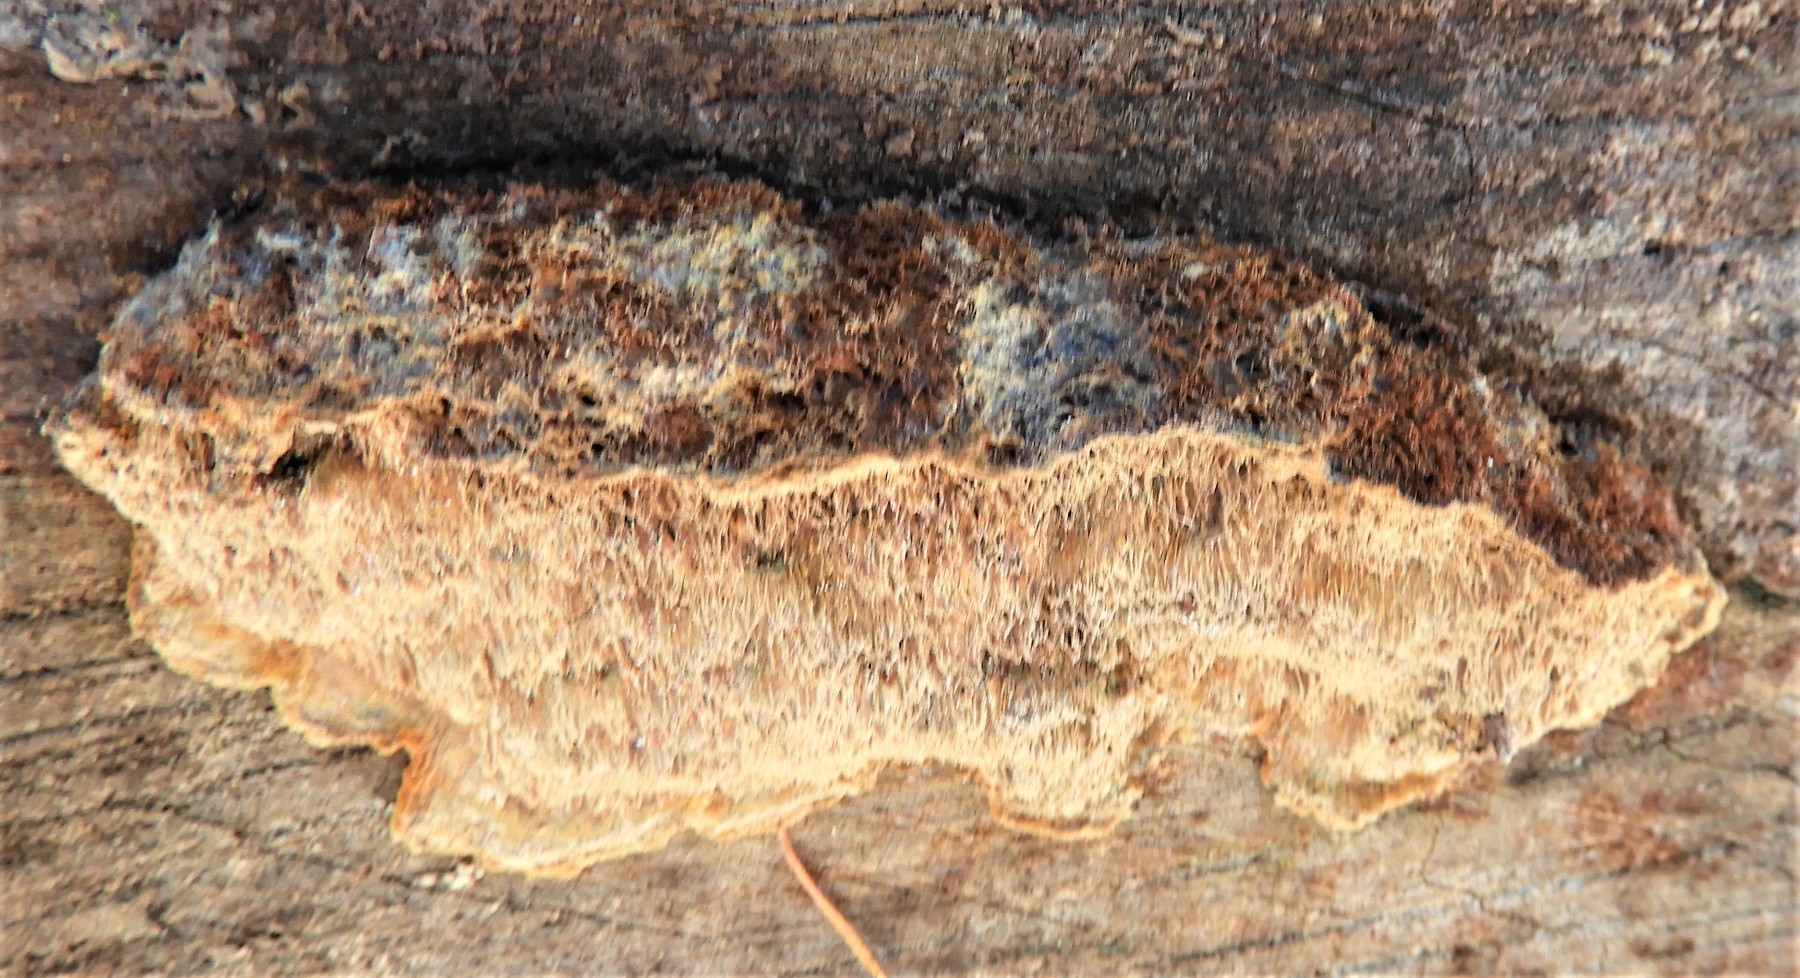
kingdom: Fungi
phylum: Basidiomycota
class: Agaricomycetes
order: Hymenochaetales
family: Hymenochaetaceae
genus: Mensularia
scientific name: Mensularia nodulosa
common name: bøge-spejlporesvamp
